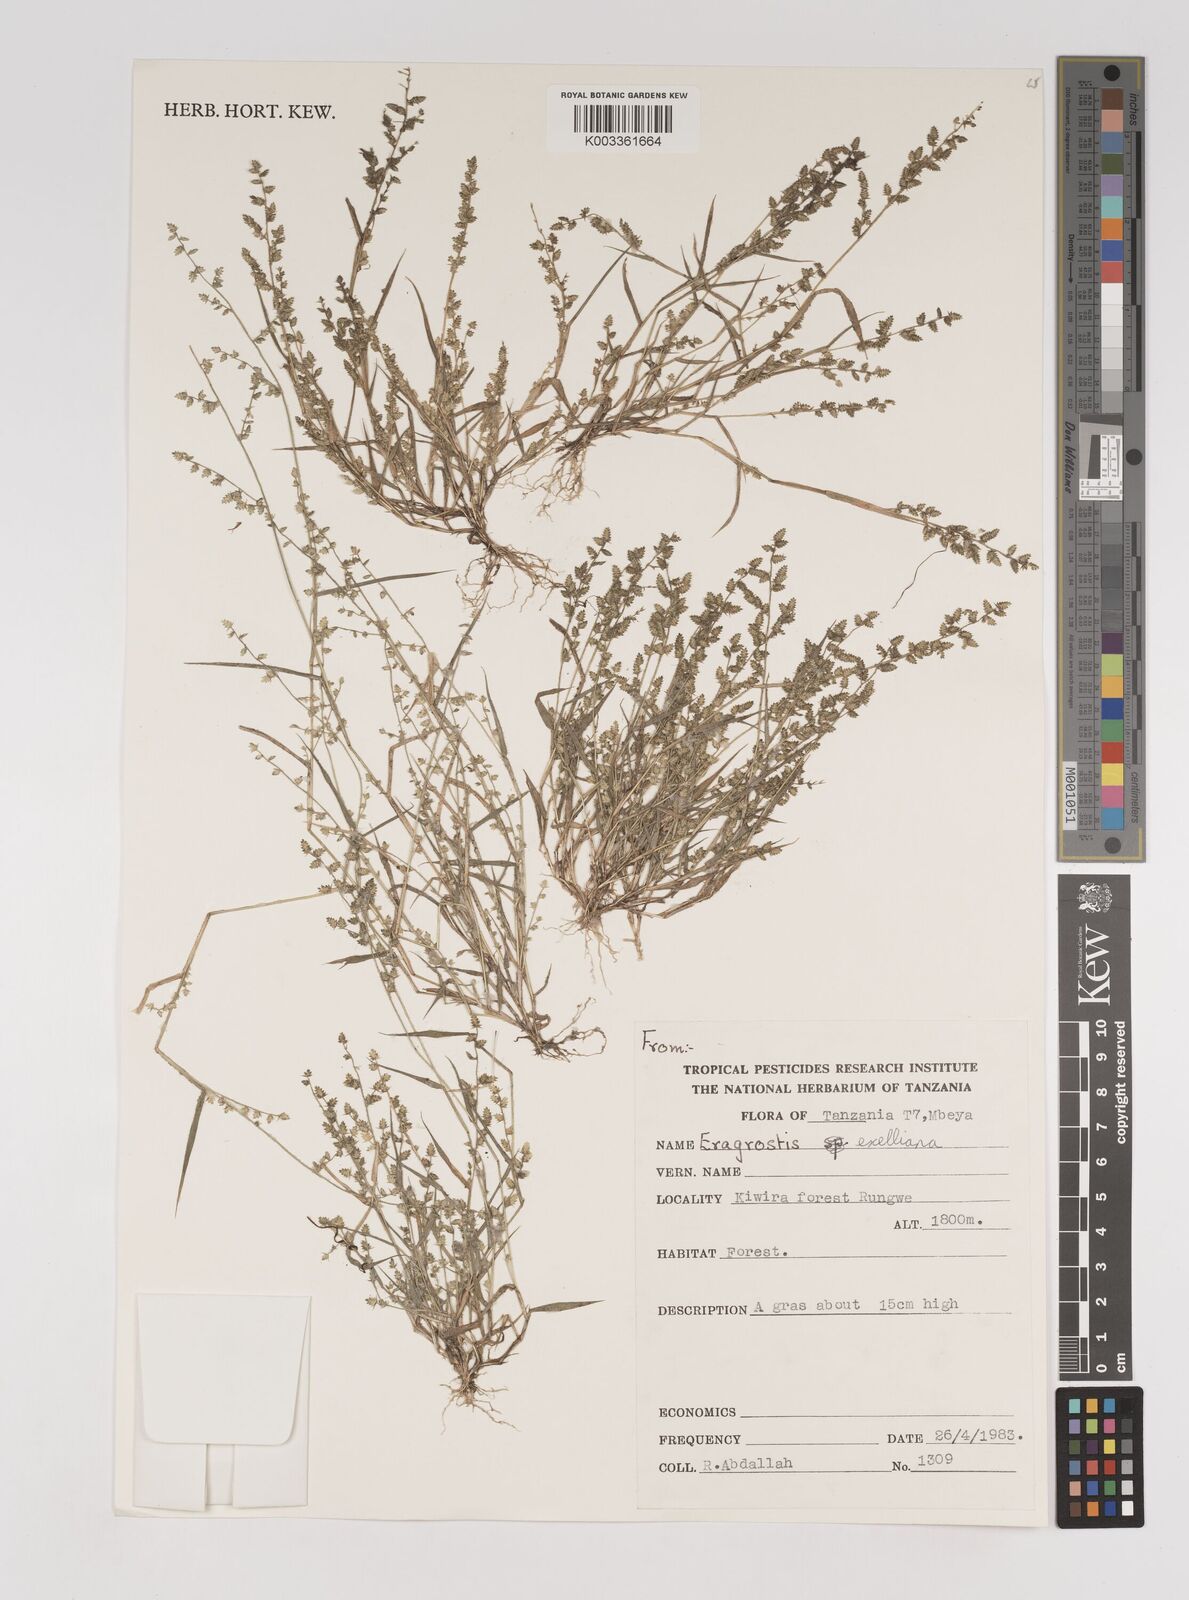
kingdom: Plantae
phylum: Tracheophyta
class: Liliopsida
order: Poales
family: Poaceae
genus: Eragrostis
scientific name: Eragrostis exelliana
